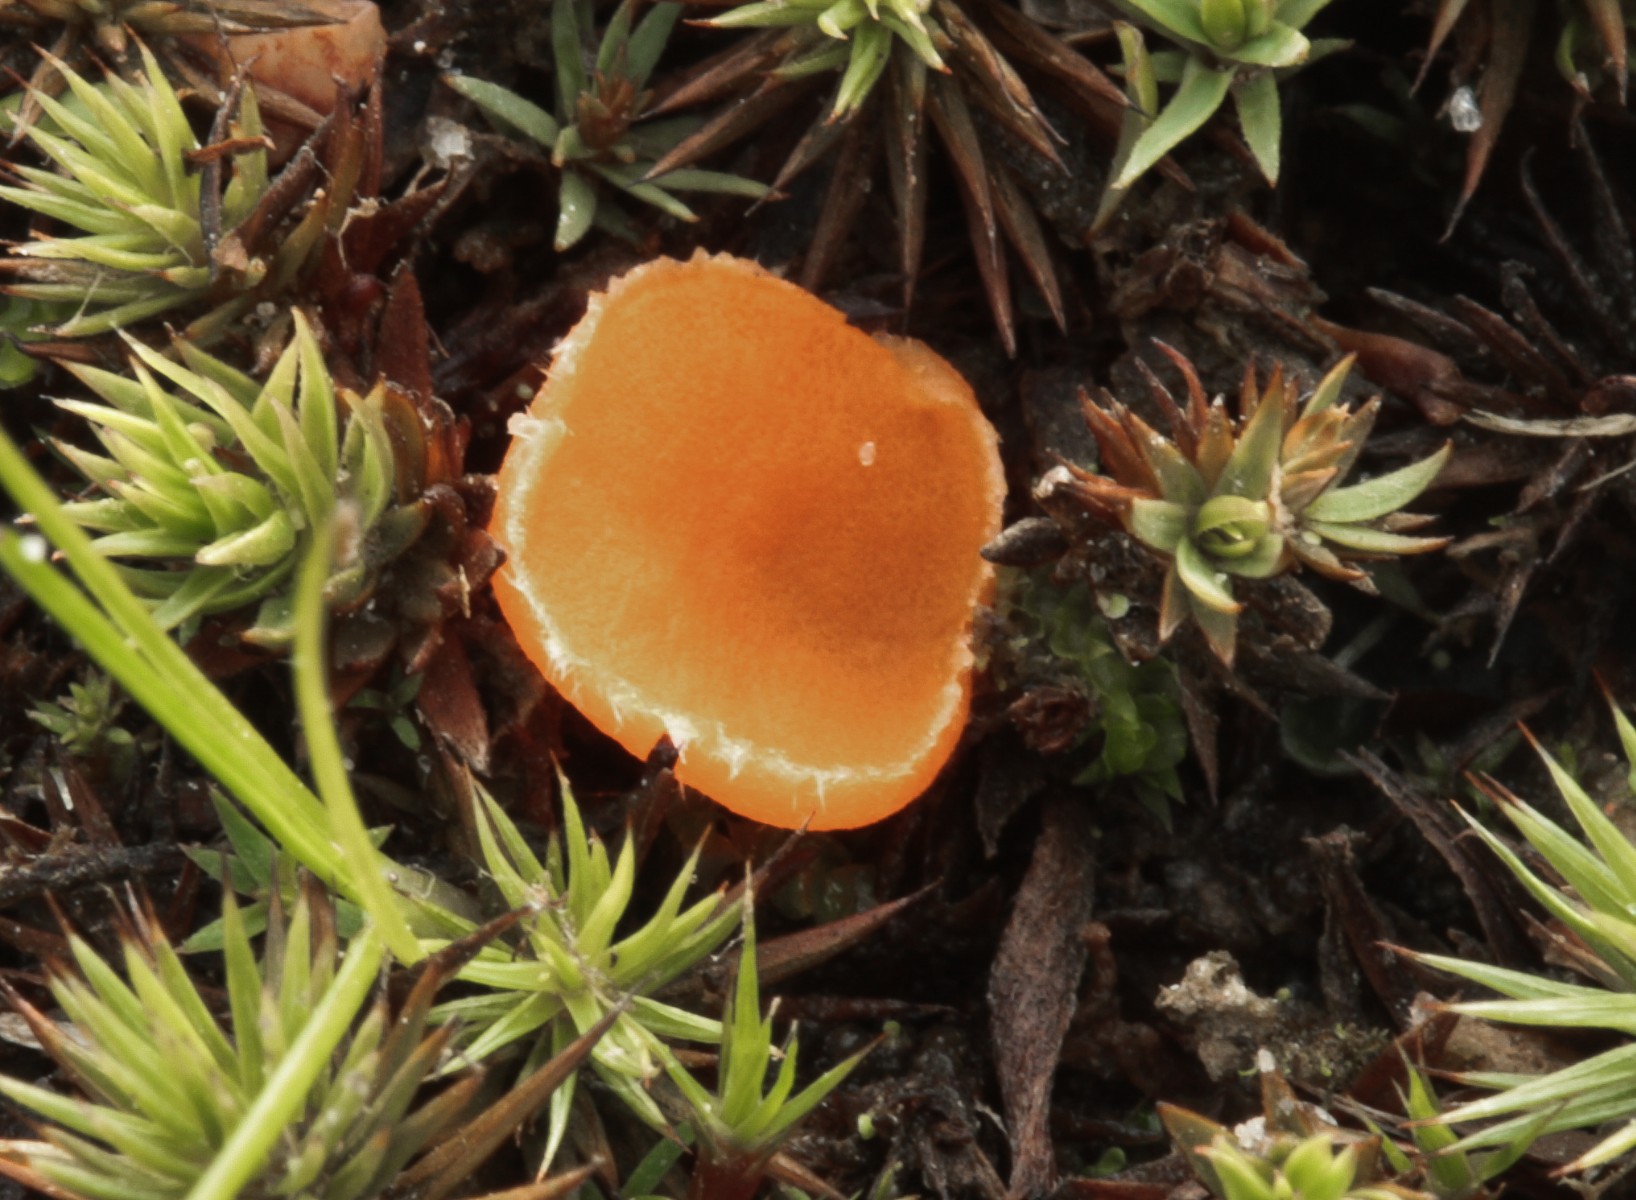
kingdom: Fungi
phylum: Ascomycota
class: Pezizomycetes
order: Pezizales
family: Pyronemataceae
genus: Neottiella
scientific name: Neottiella
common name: mosbæger
